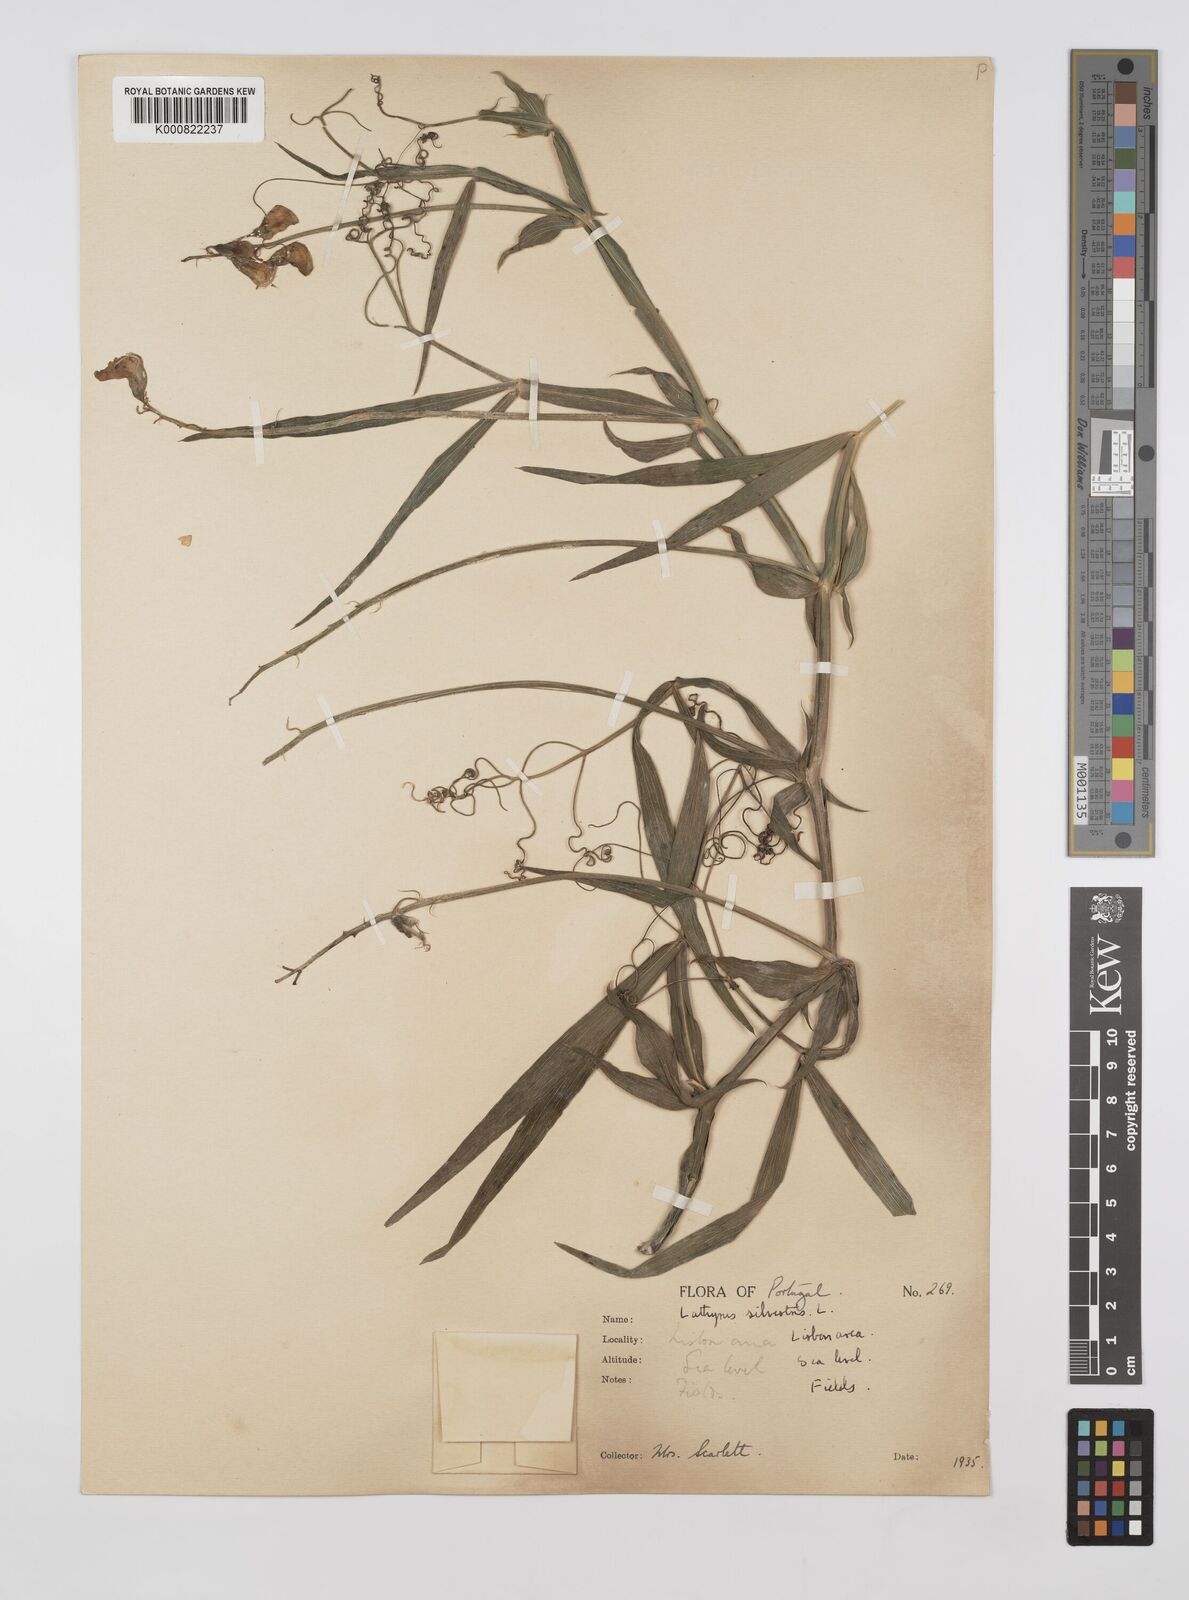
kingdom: Plantae
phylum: Tracheophyta
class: Magnoliopsida
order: Fabales
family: Fabaceae
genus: Lathyrus
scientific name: Lathyrus sylvestris
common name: Flat pea
